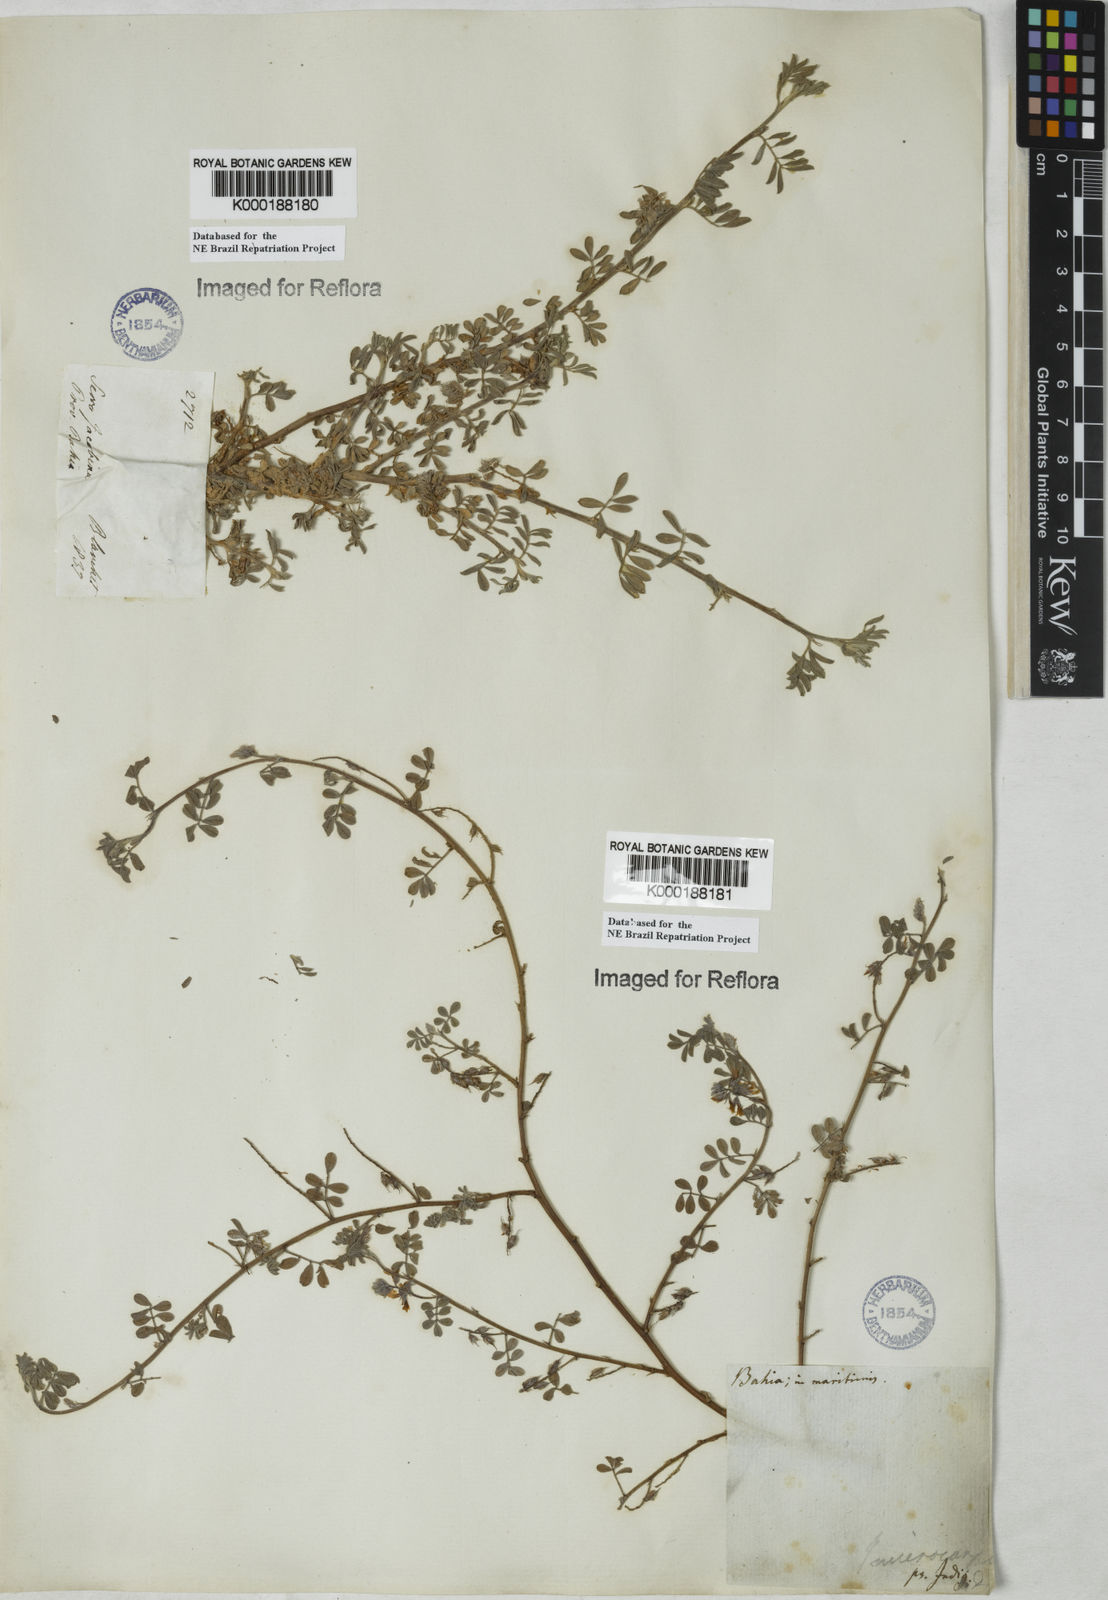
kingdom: Plantae
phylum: Tracheophyta
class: Magnoliopsida
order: Fabales
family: Fabaceae
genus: Indigofera
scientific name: Indigofera microcarpa
